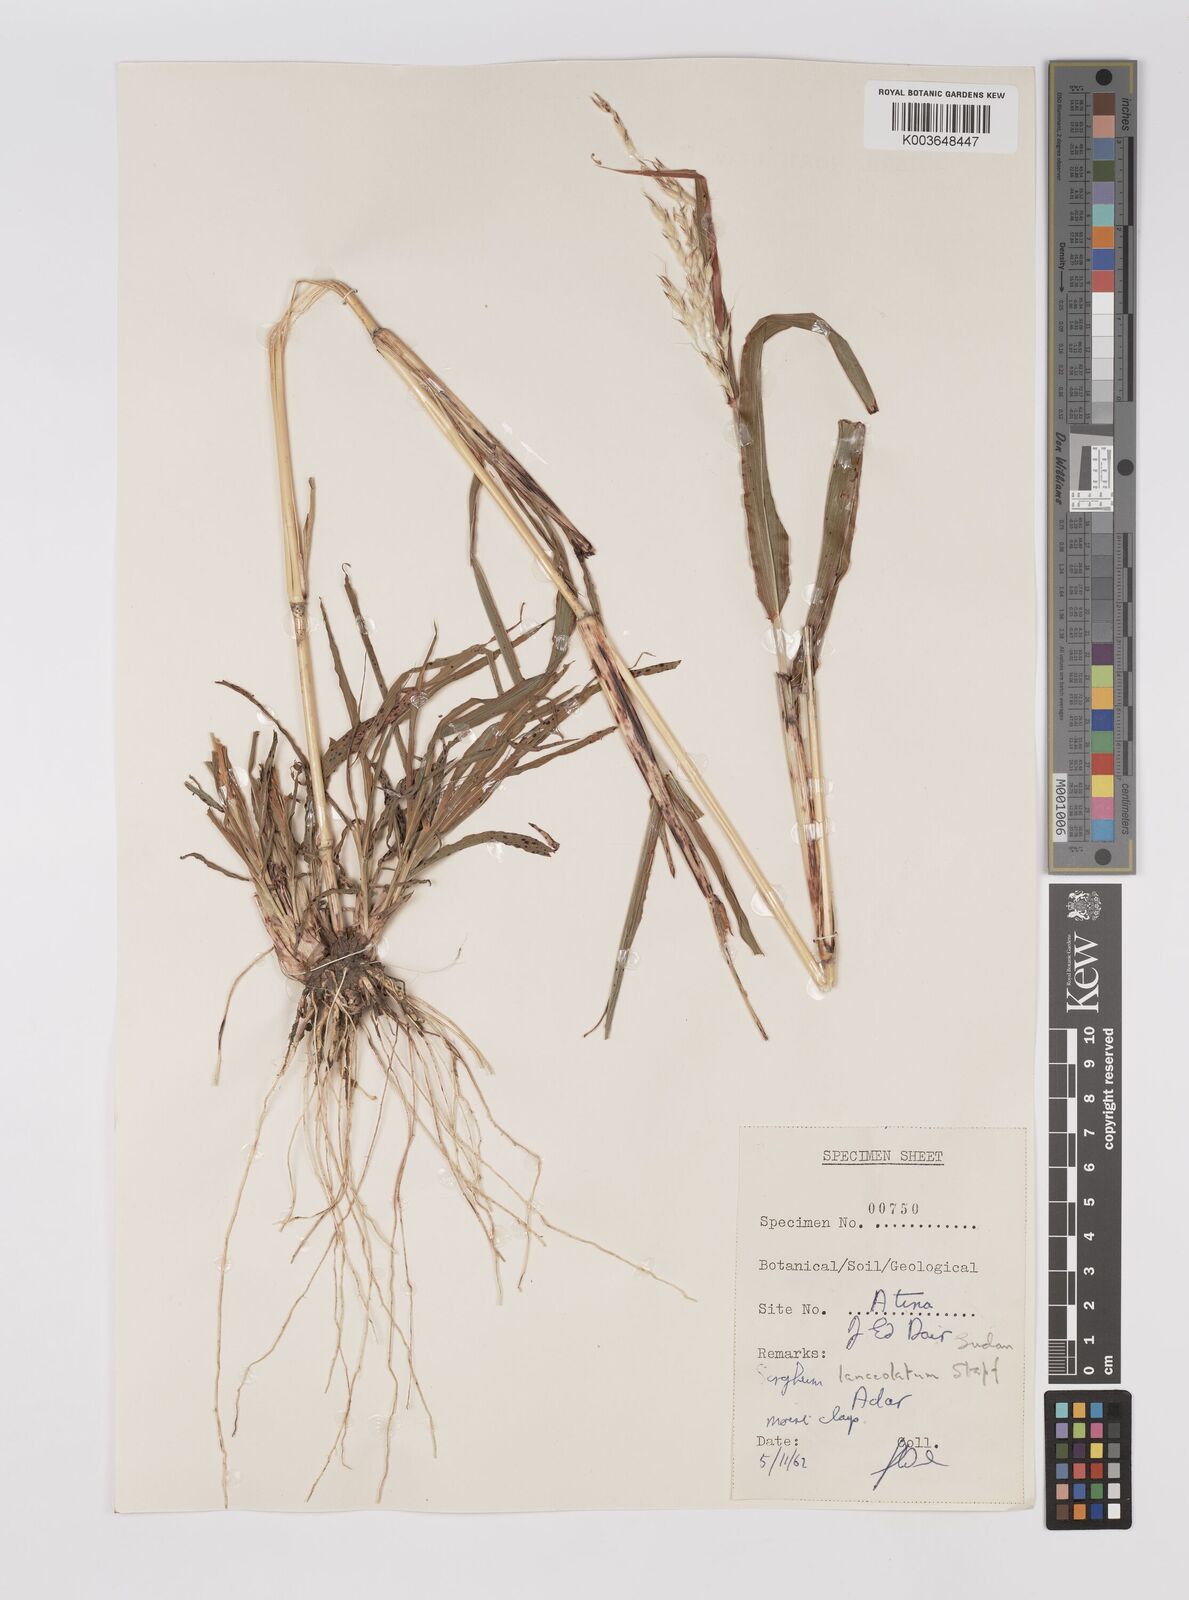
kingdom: Plantae
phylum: Tracheophyta
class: Liliopsida
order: Poales
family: Poaceae
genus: Sorghum
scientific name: Sorghum arundinaceum
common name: Sorghum
